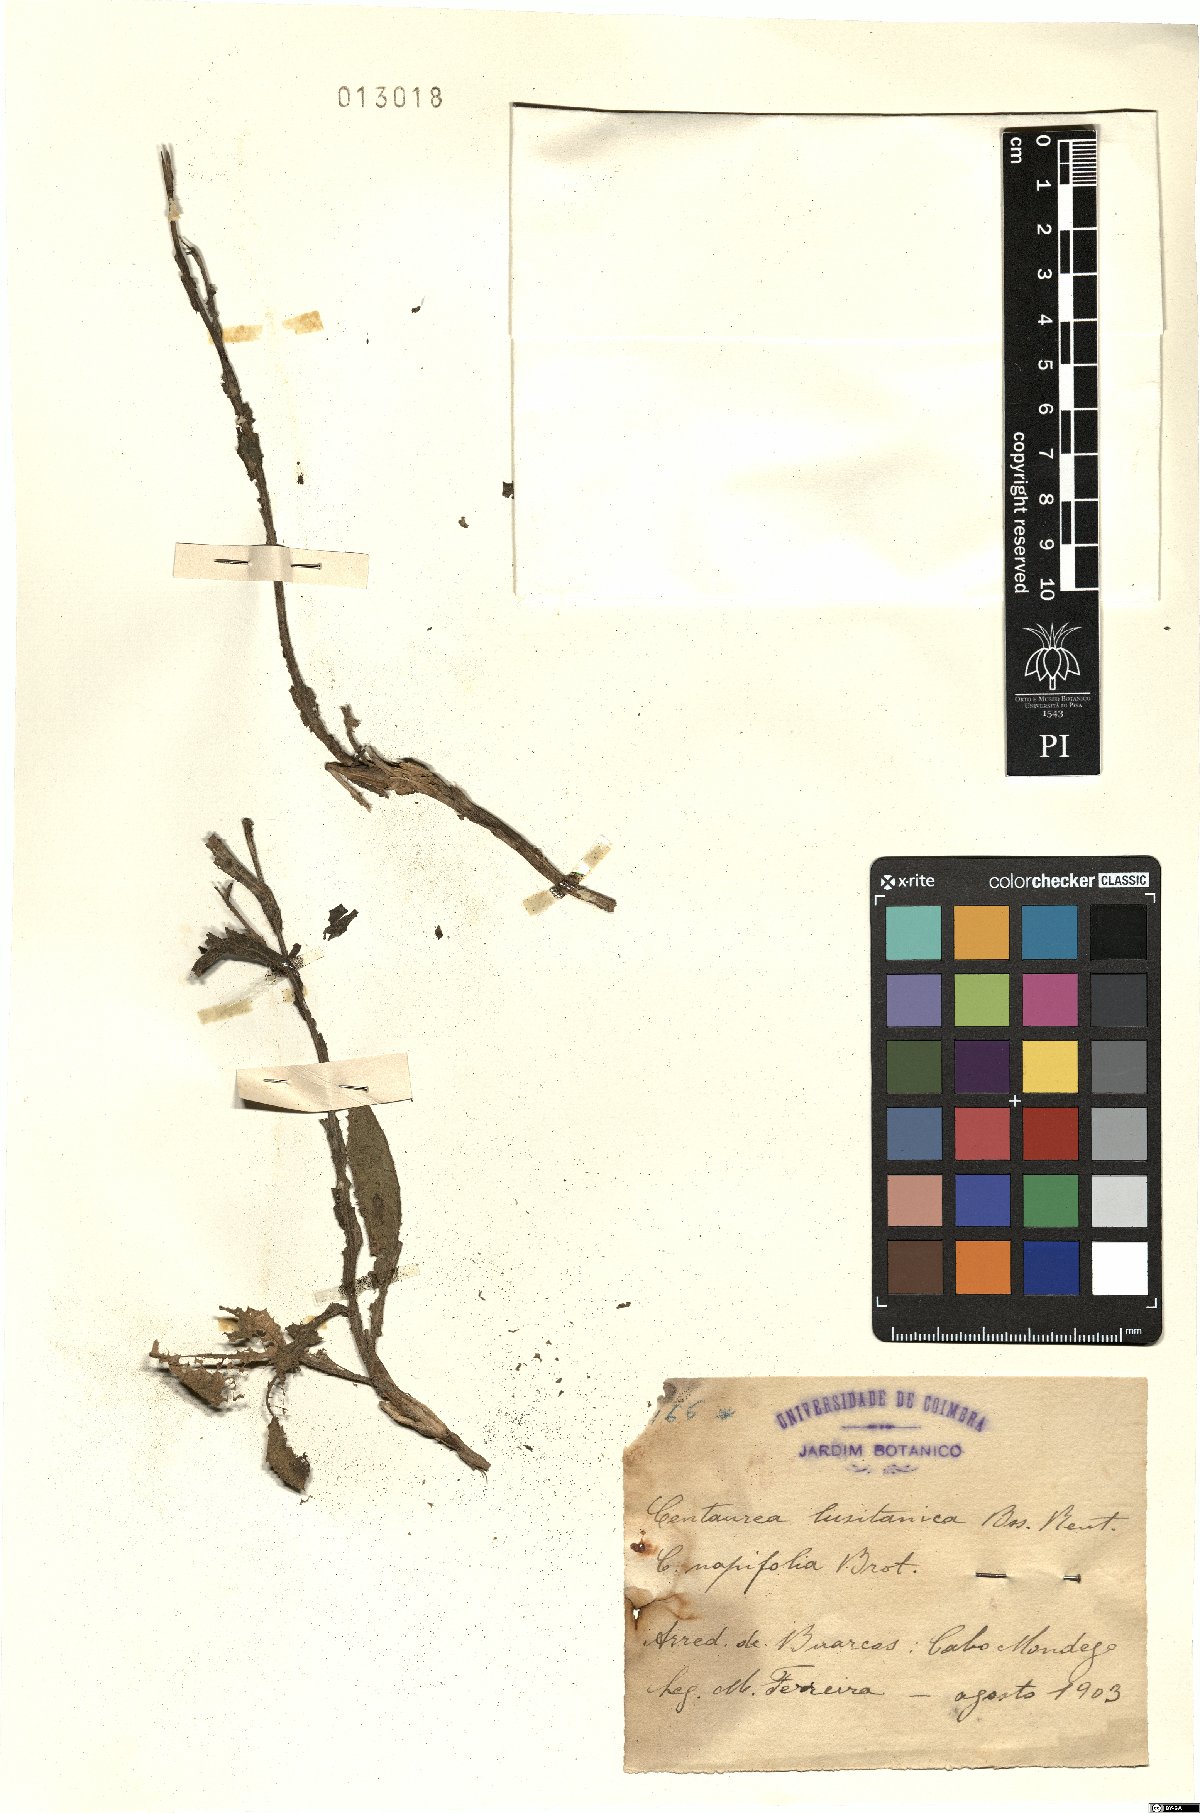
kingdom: Plantae
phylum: Tracheophyta
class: Magnoliopsida
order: Asterales
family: Asteraceae
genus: Centaurea
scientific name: Centaurea lusitanica
